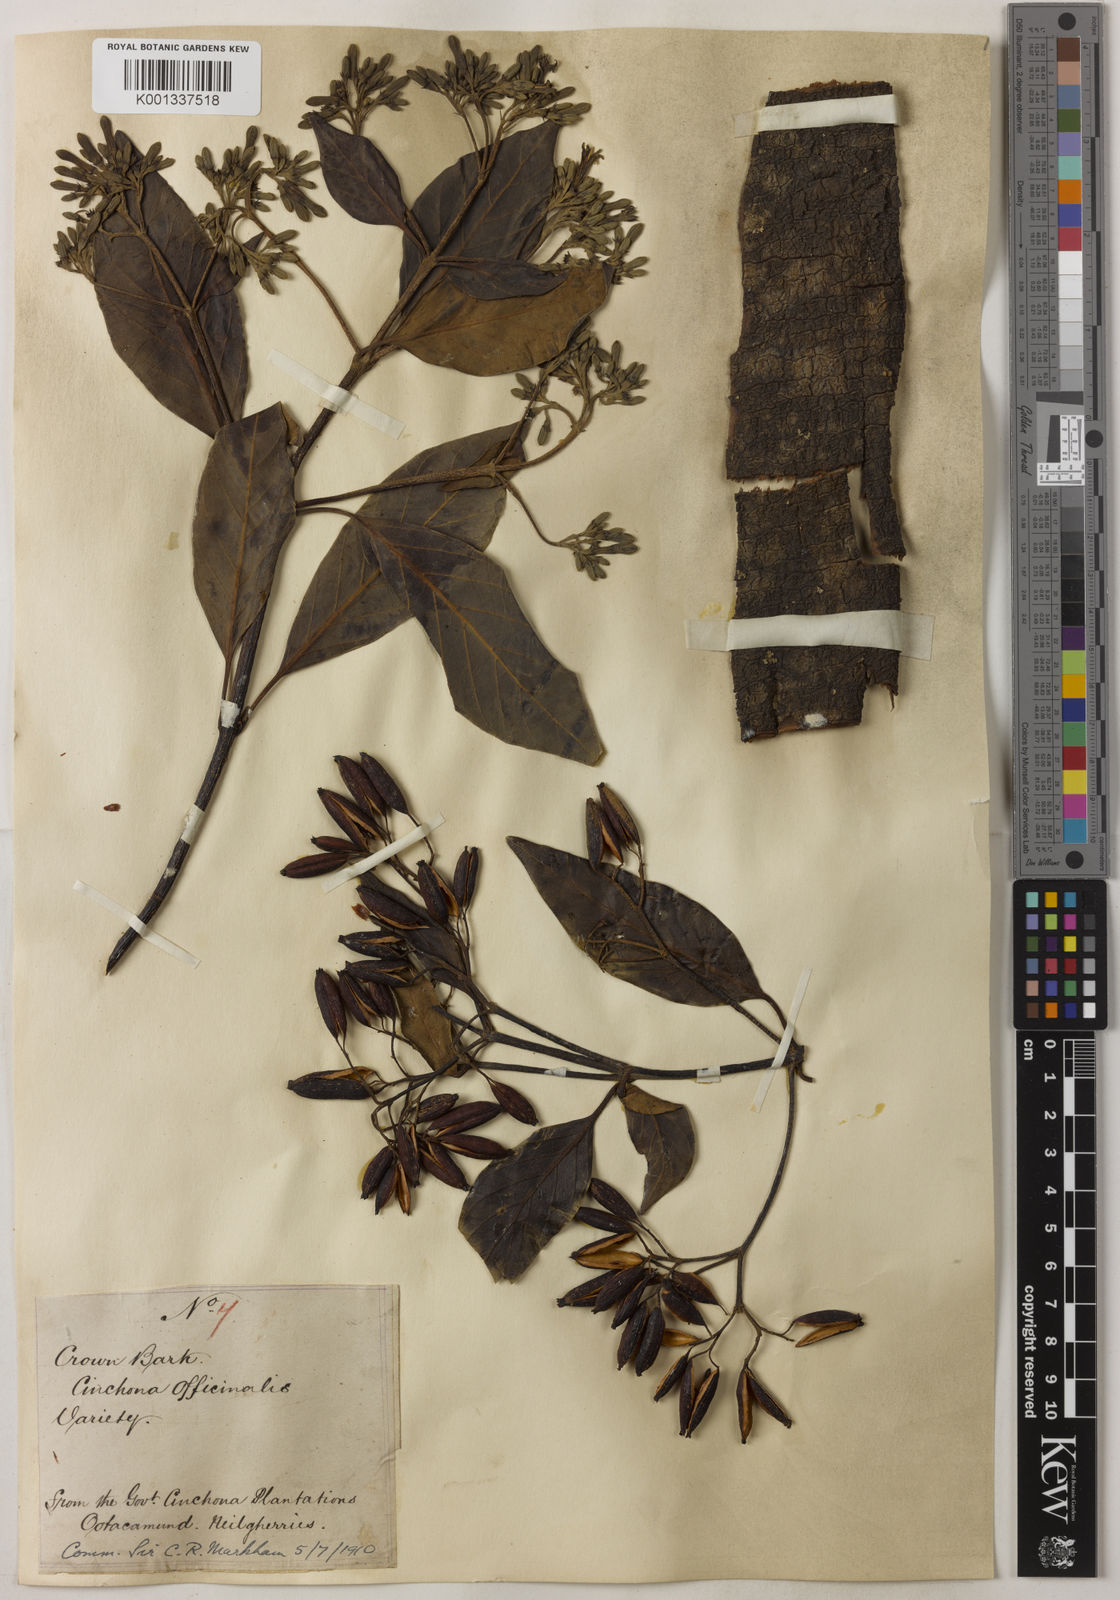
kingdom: Plantae
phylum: Tracheophyta
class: Magnoliopsida
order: Gentianales
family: Rubiaceae
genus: Cinchona
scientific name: Cinchona officinalis
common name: Lojabark
